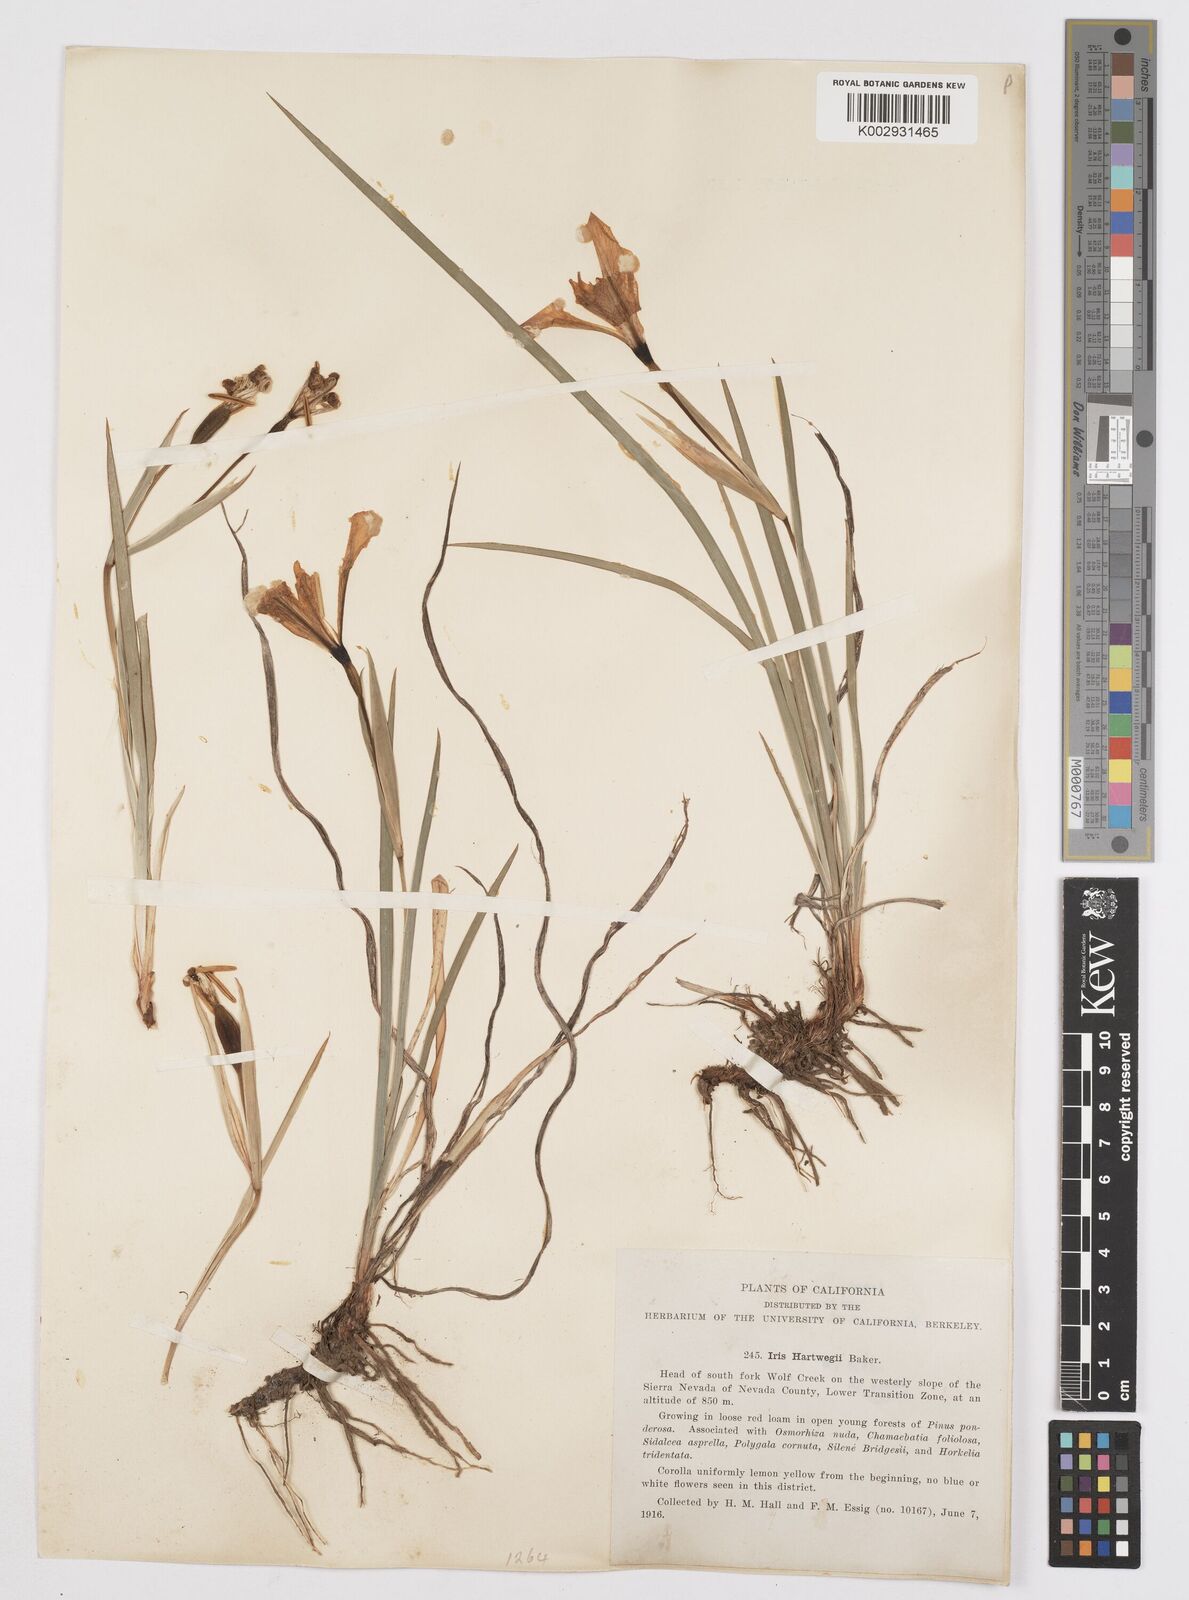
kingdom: Plantae
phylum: Tracheophyta
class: Liliopsida
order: Asparagales
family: Iridaceae
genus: Iris
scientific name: Iris hartwegii
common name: Sierra iris
